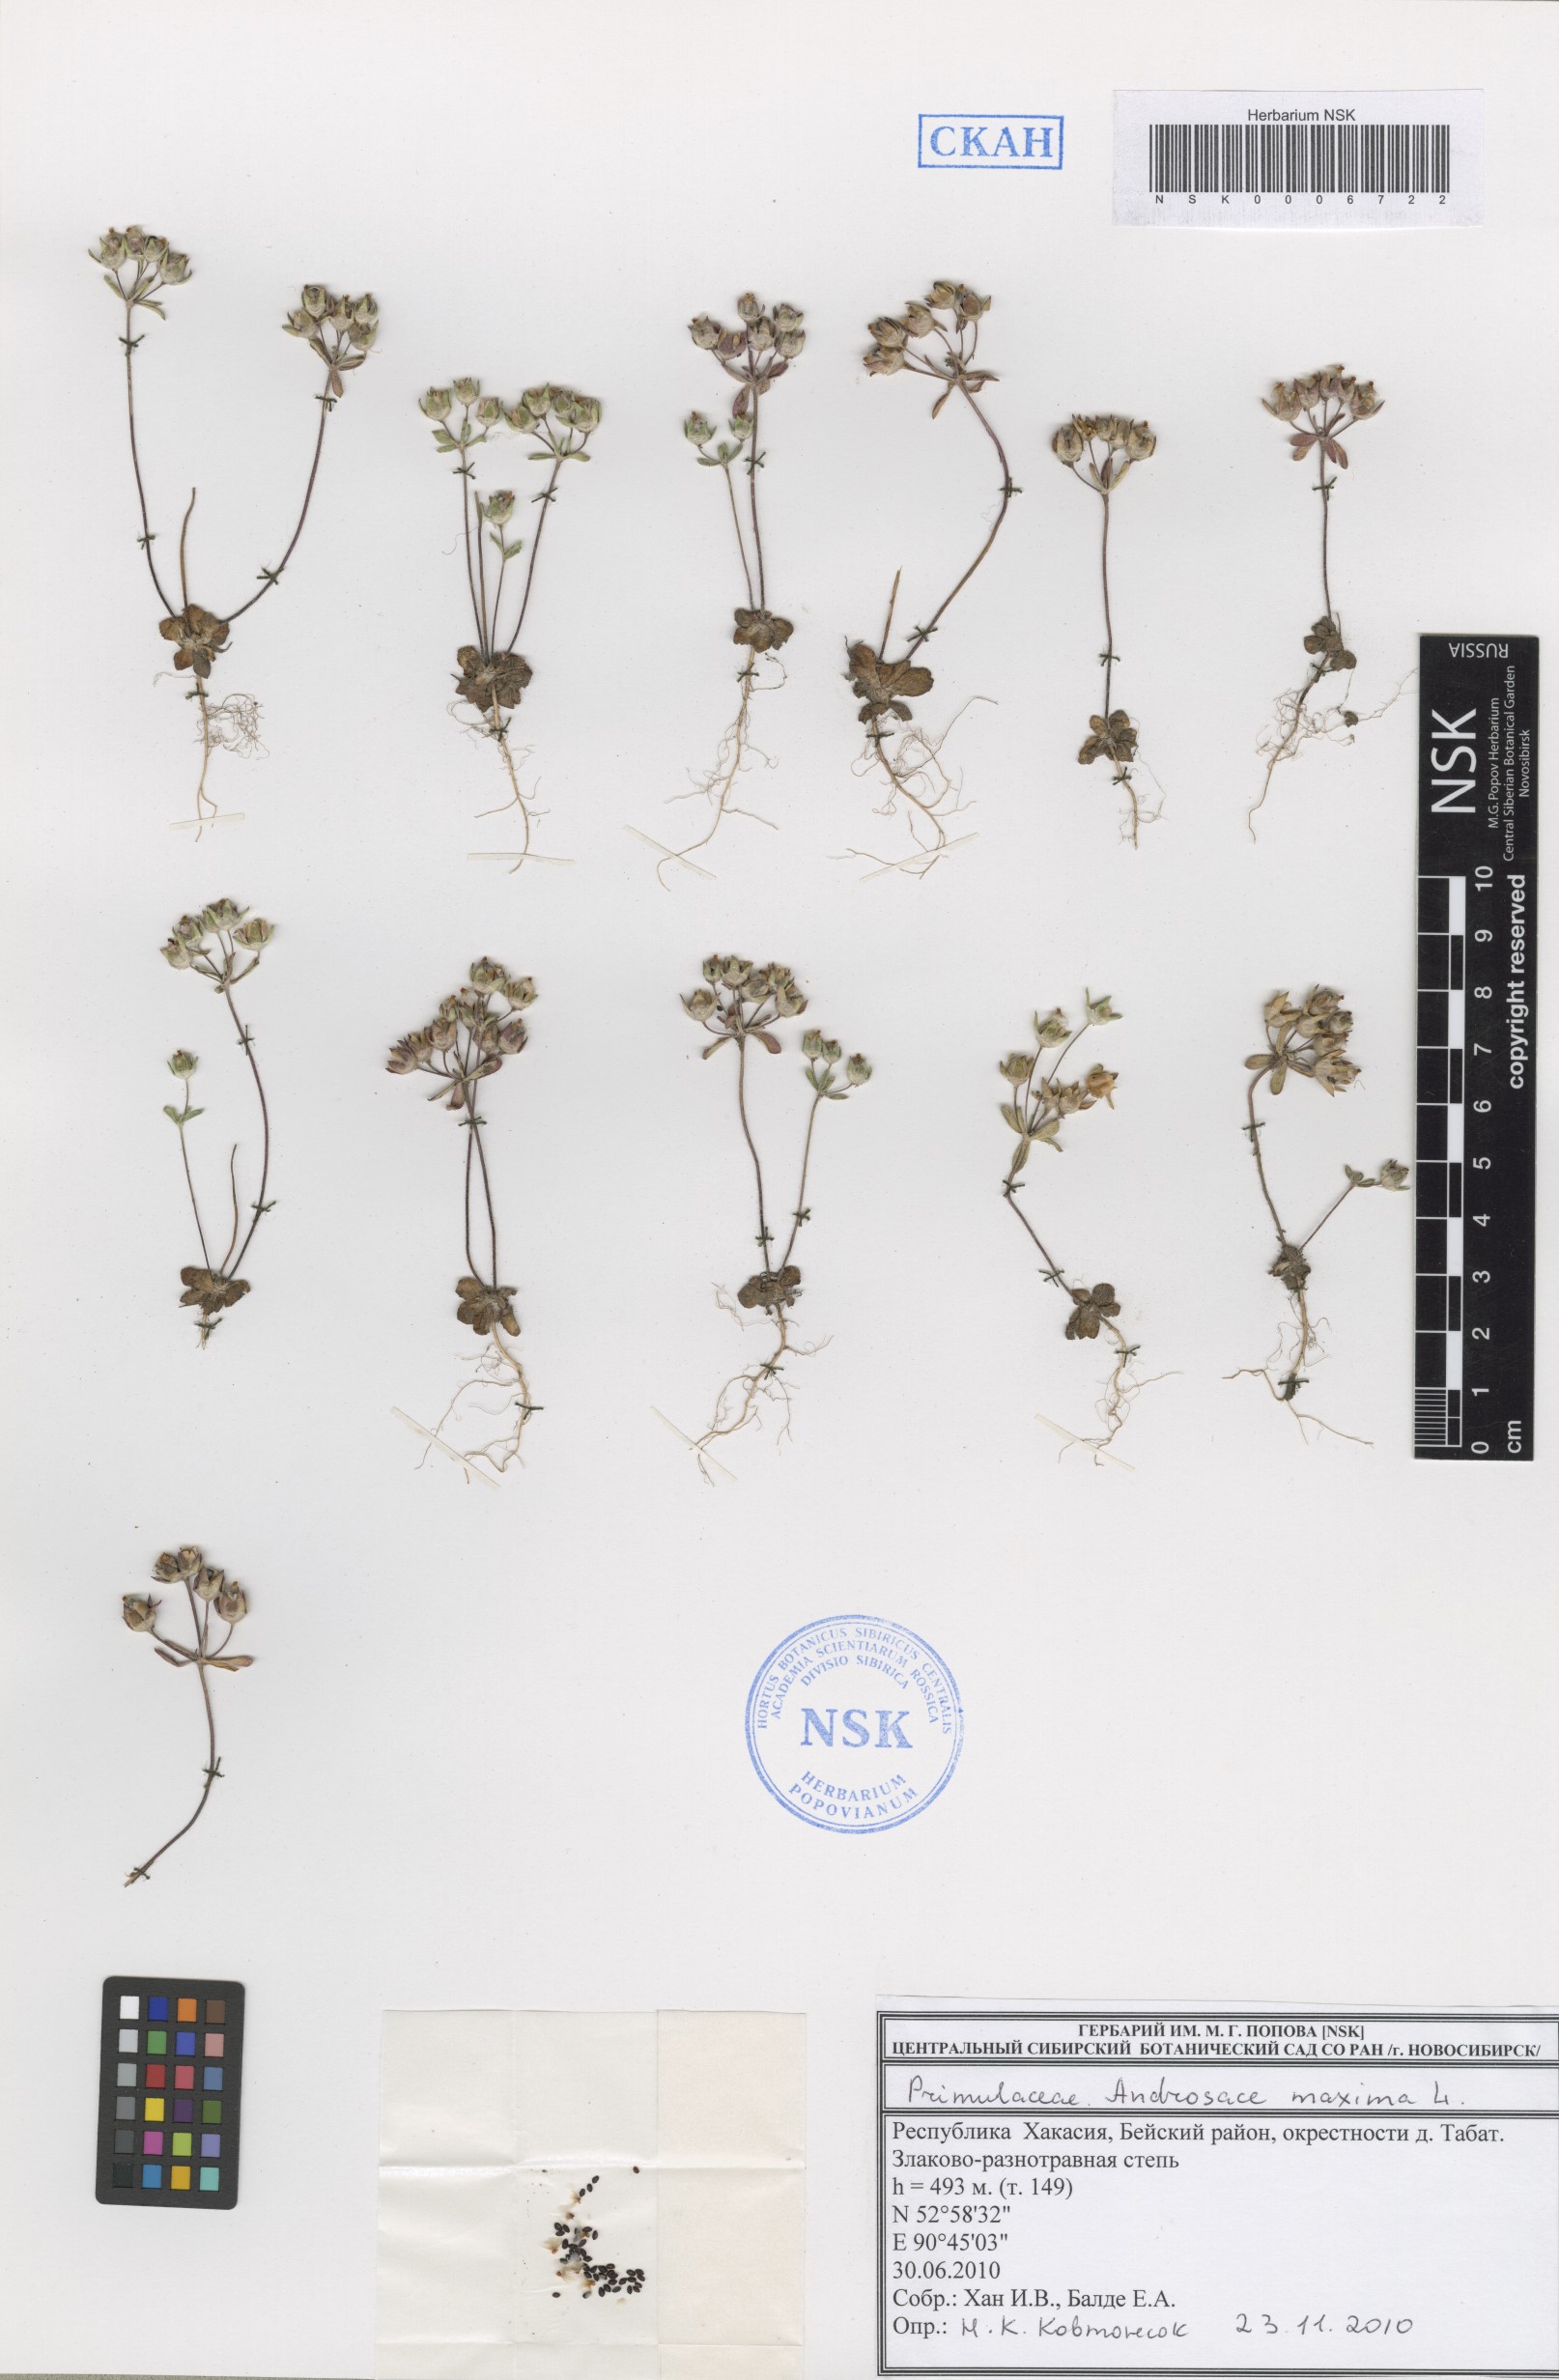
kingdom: Plantae
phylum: Tracheophyta
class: Magnoliopsida
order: Ericales
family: Primulaceae
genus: Androsace
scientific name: Androsace maxima
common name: Annual androsace
